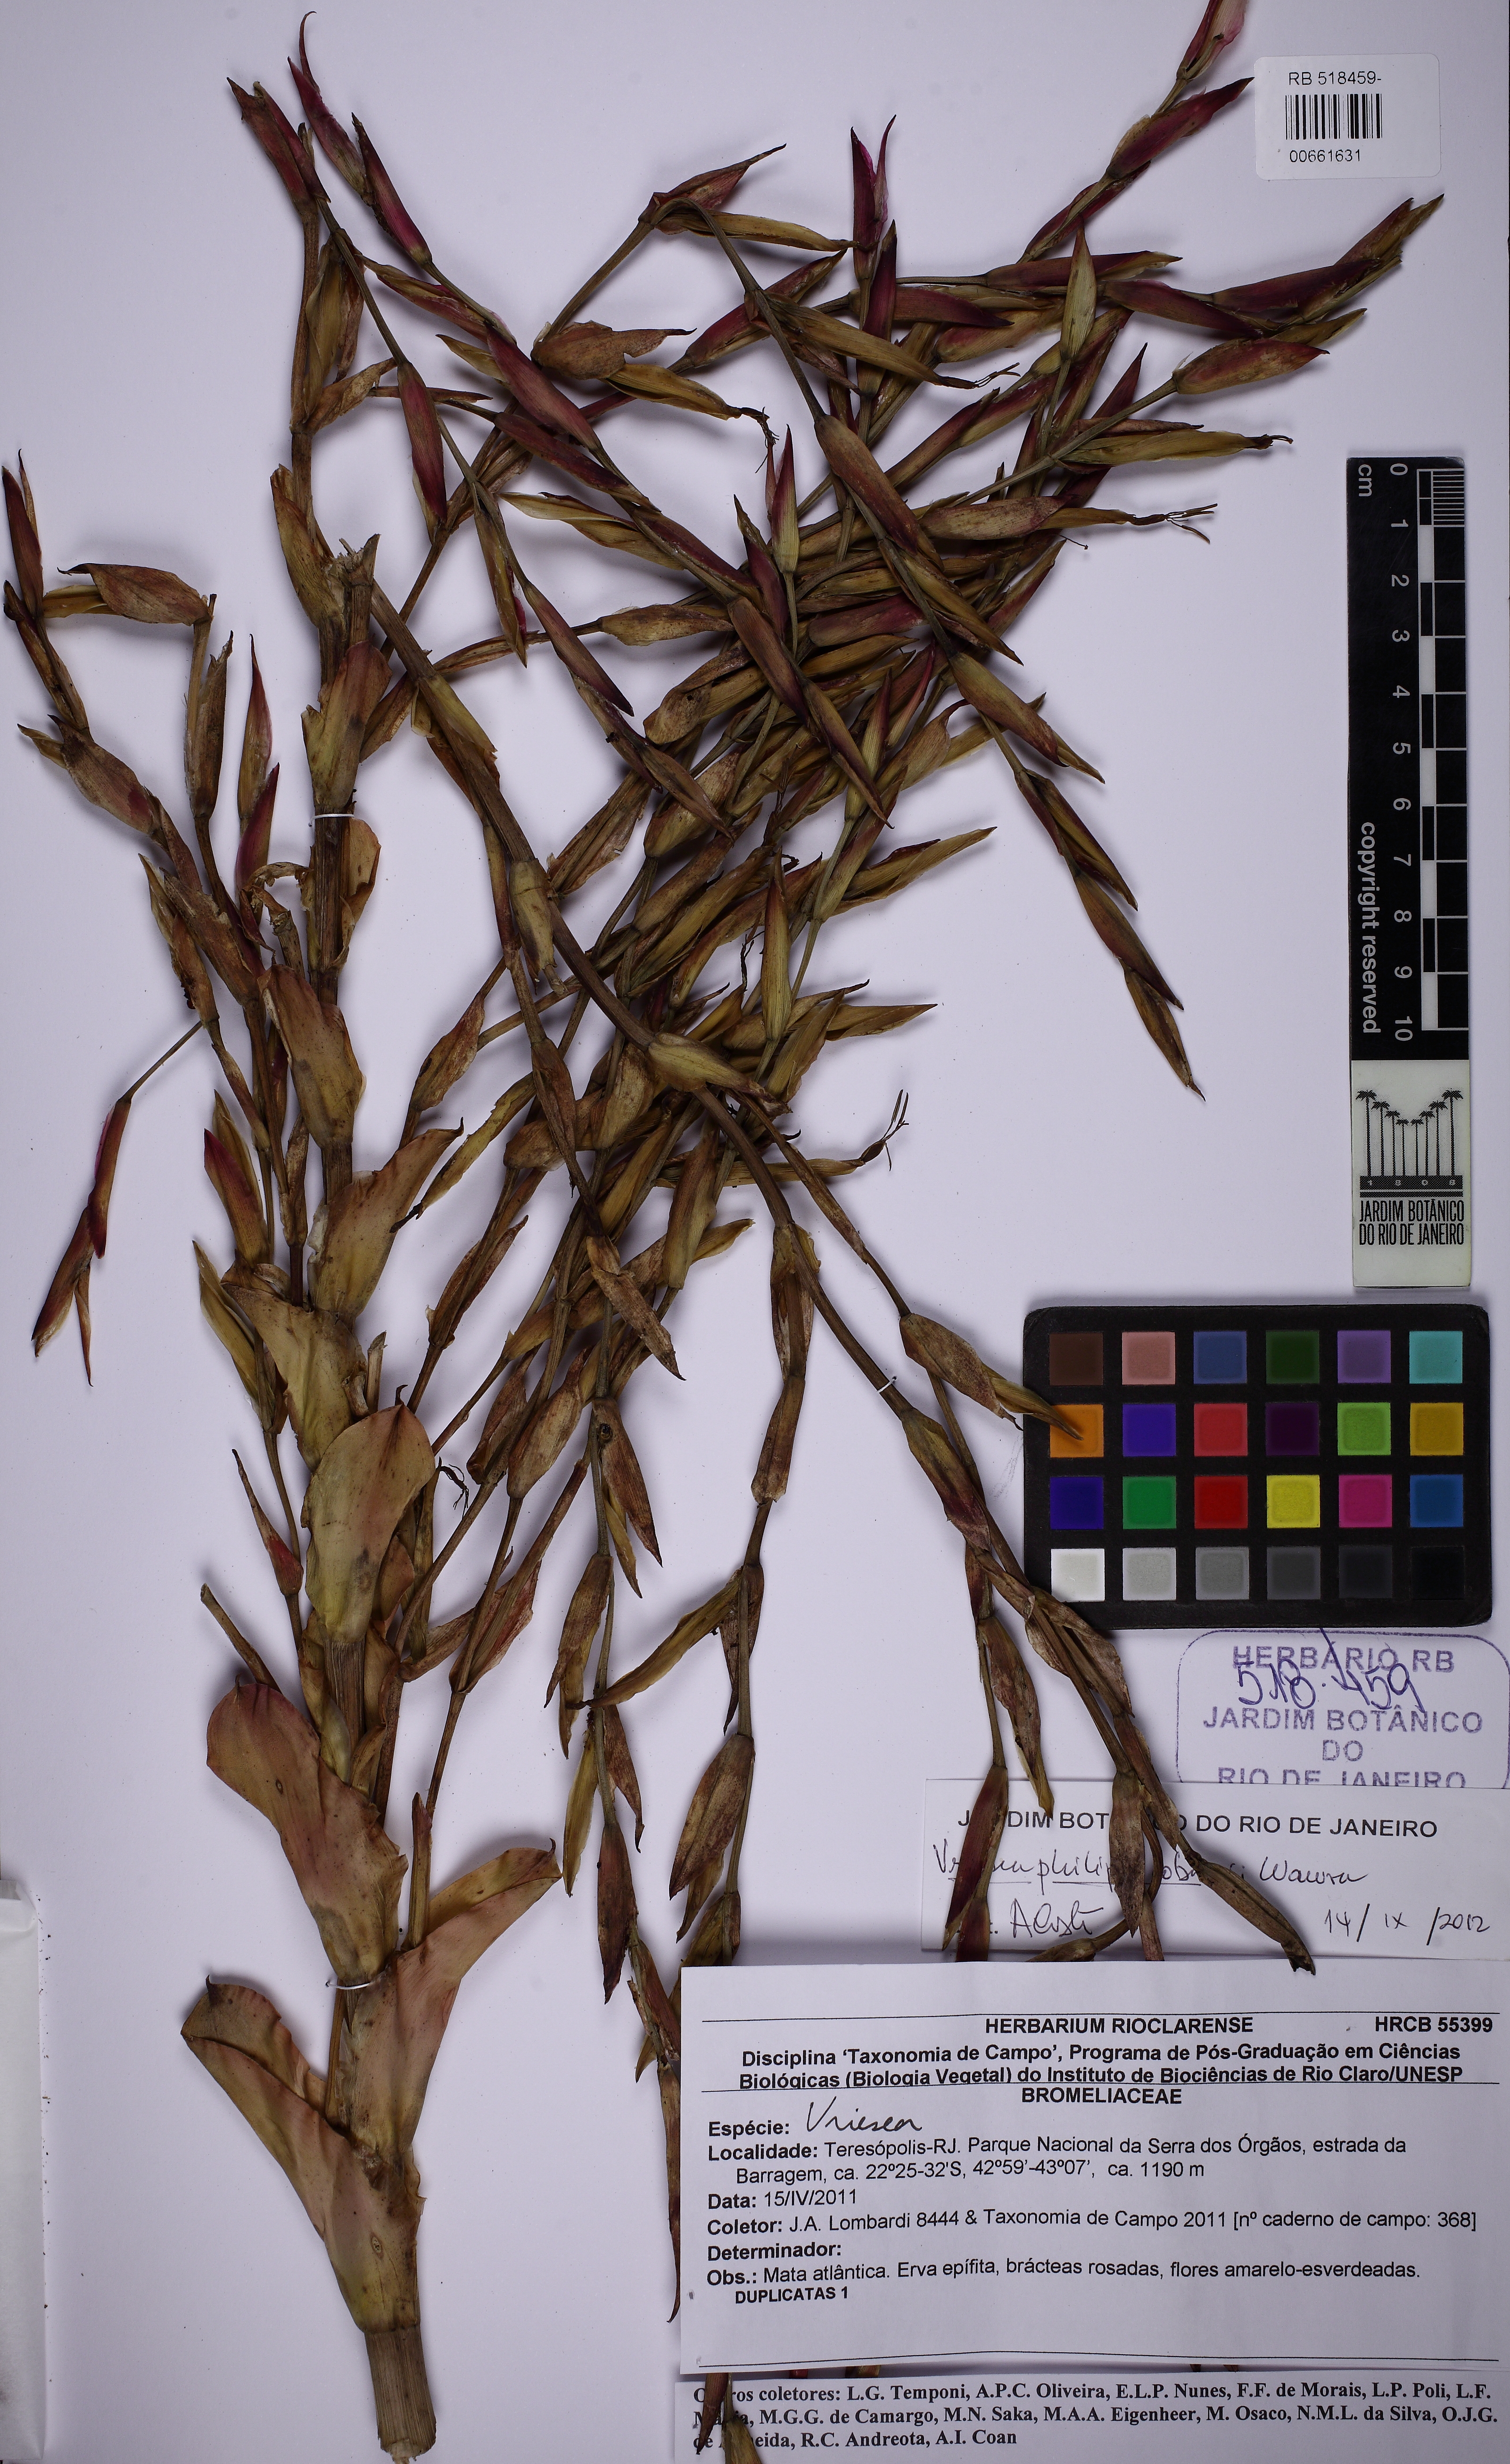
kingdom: Plantae
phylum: Tracheophyta
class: Liliopsida
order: Poales
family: Bromeliaceae
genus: Vriesea
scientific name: Vriesea philippocoburgi
